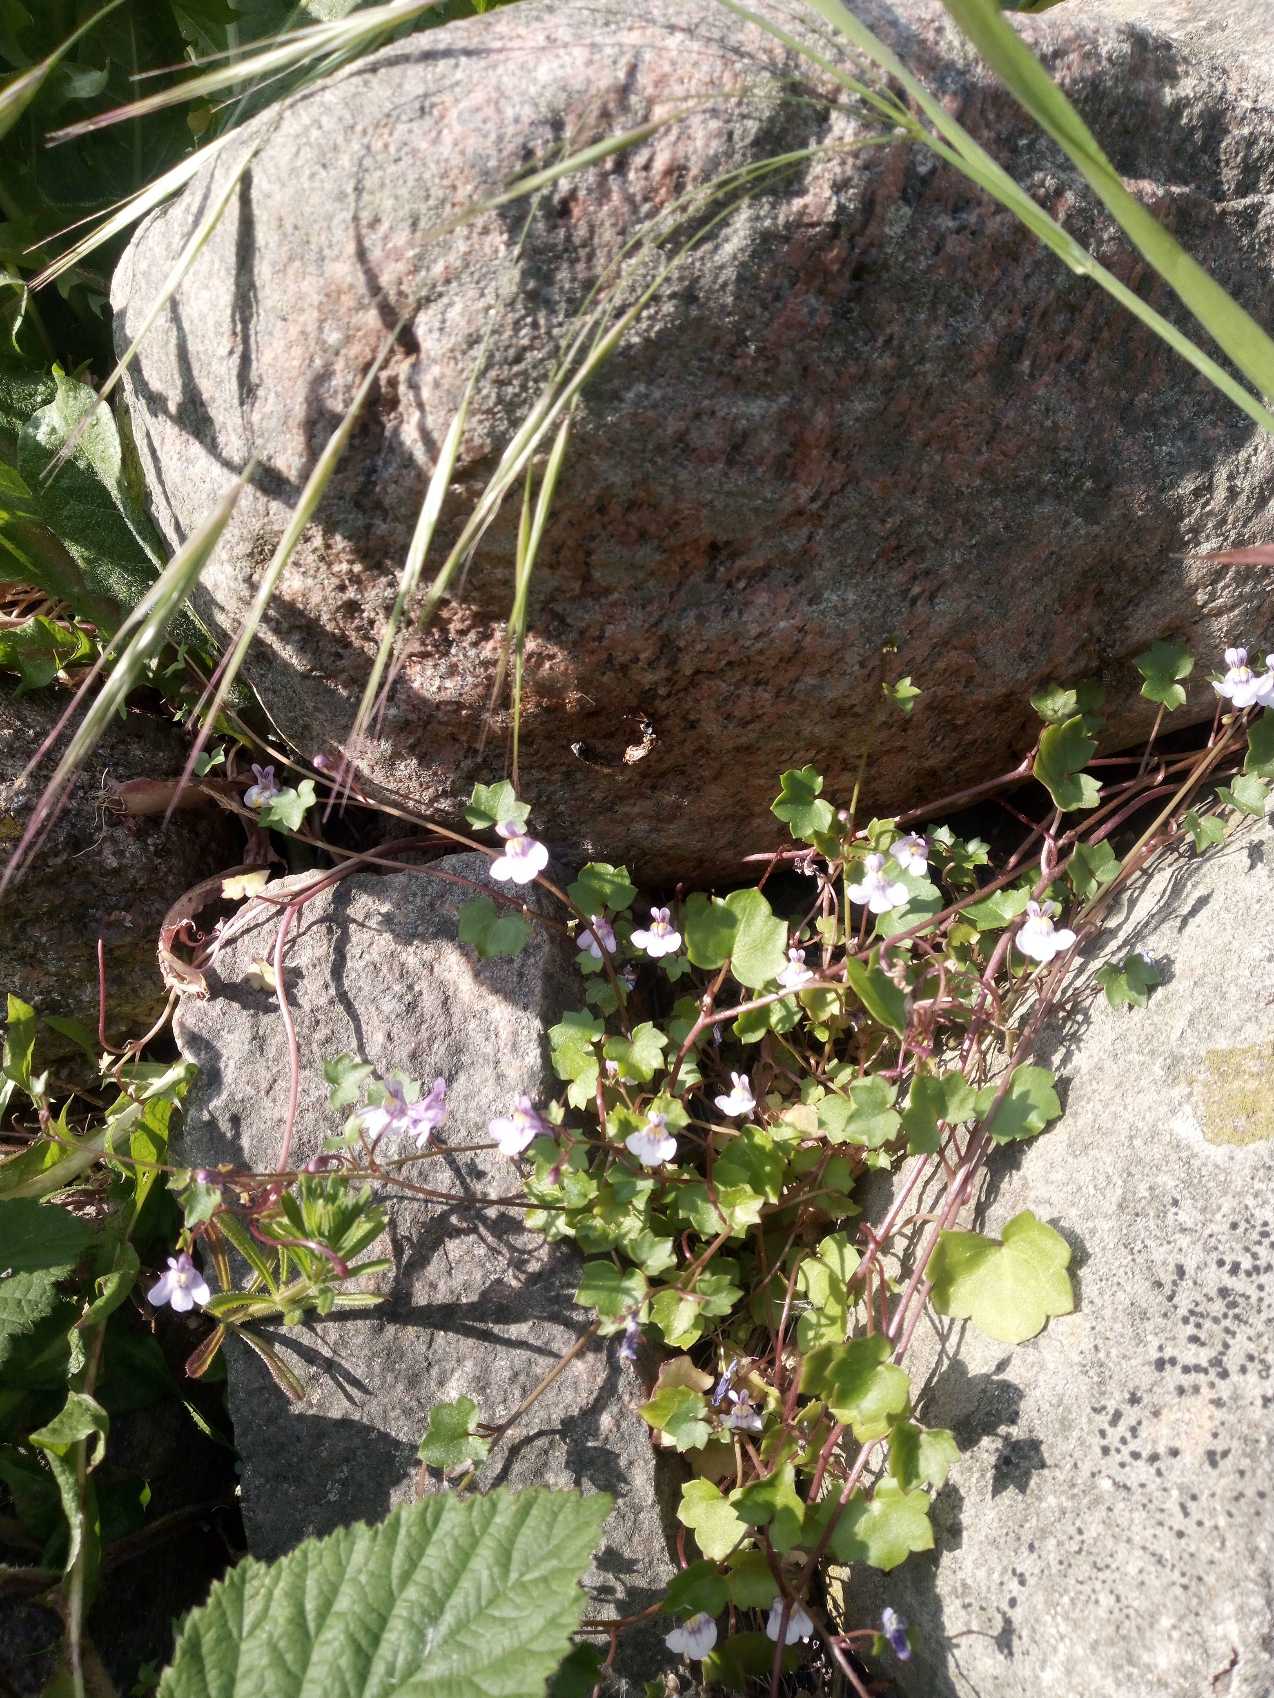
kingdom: Plantae
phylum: Tracheophyta
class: Magnoliopsida
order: Lamiales
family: Plantaginaceae
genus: Cymbalaria
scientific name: Cymbalaria muralis
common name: Vedbend-torskemund
